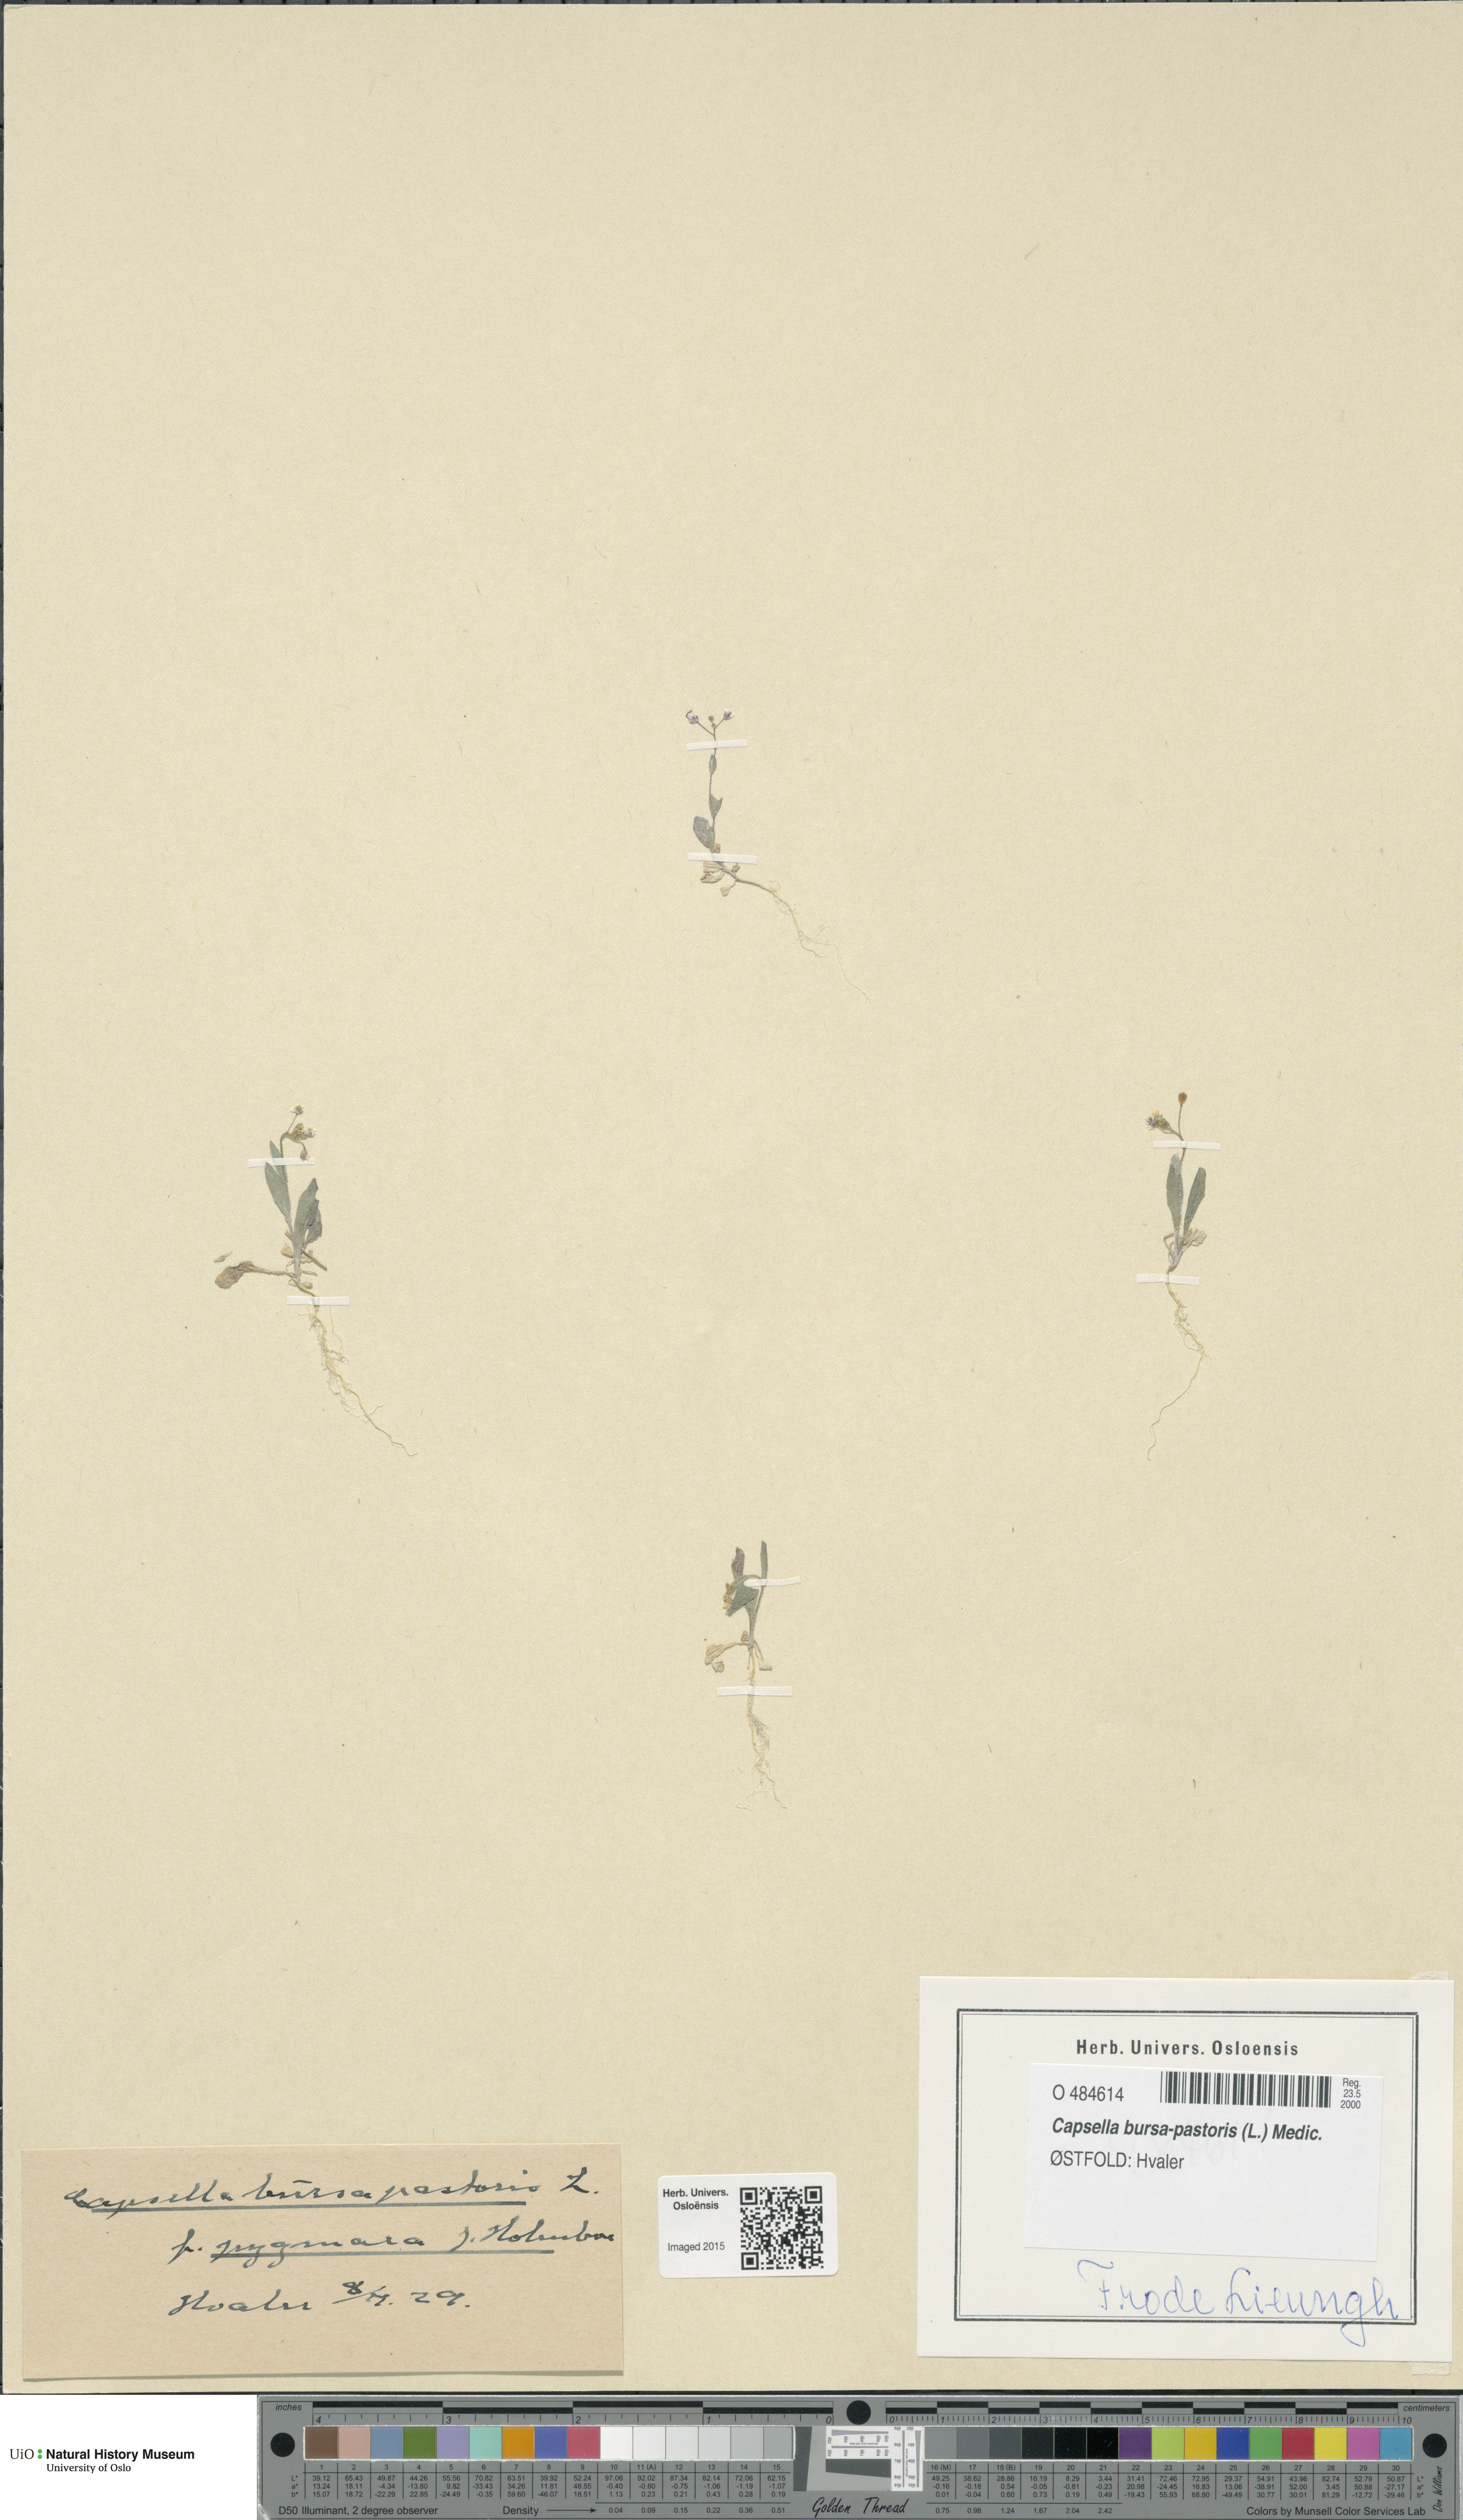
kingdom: Plantae
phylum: Tracheophyta
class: Magnoliopsida
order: Brassicales
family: Brassicaceae
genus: Capsella
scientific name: Capsella bursa-pastoris
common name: Shepherd's purse
